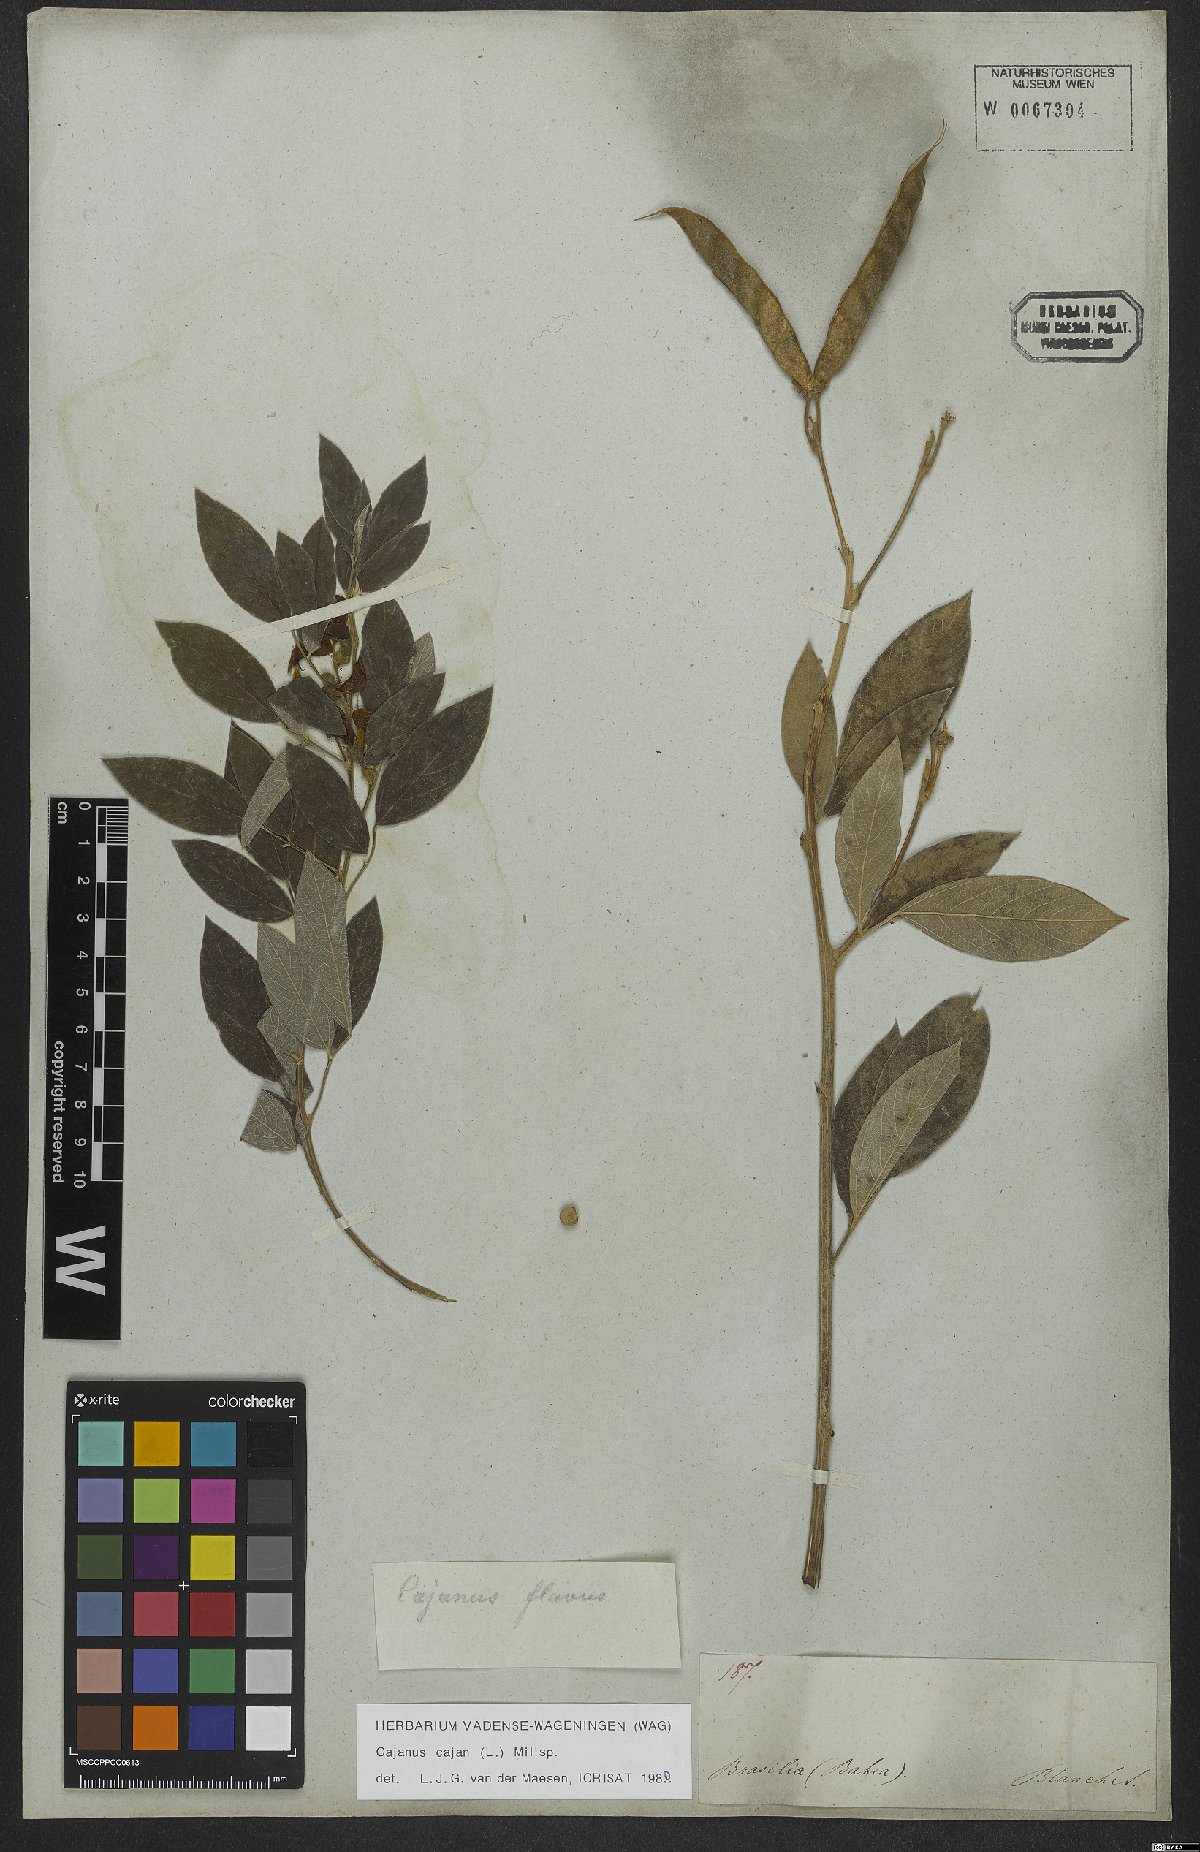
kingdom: Plantae
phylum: Tracheophyta
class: Magnoliopsida
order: Fabales
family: Fabaceae
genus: Cajanus
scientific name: Cajanus cajan
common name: Pigeonpea
